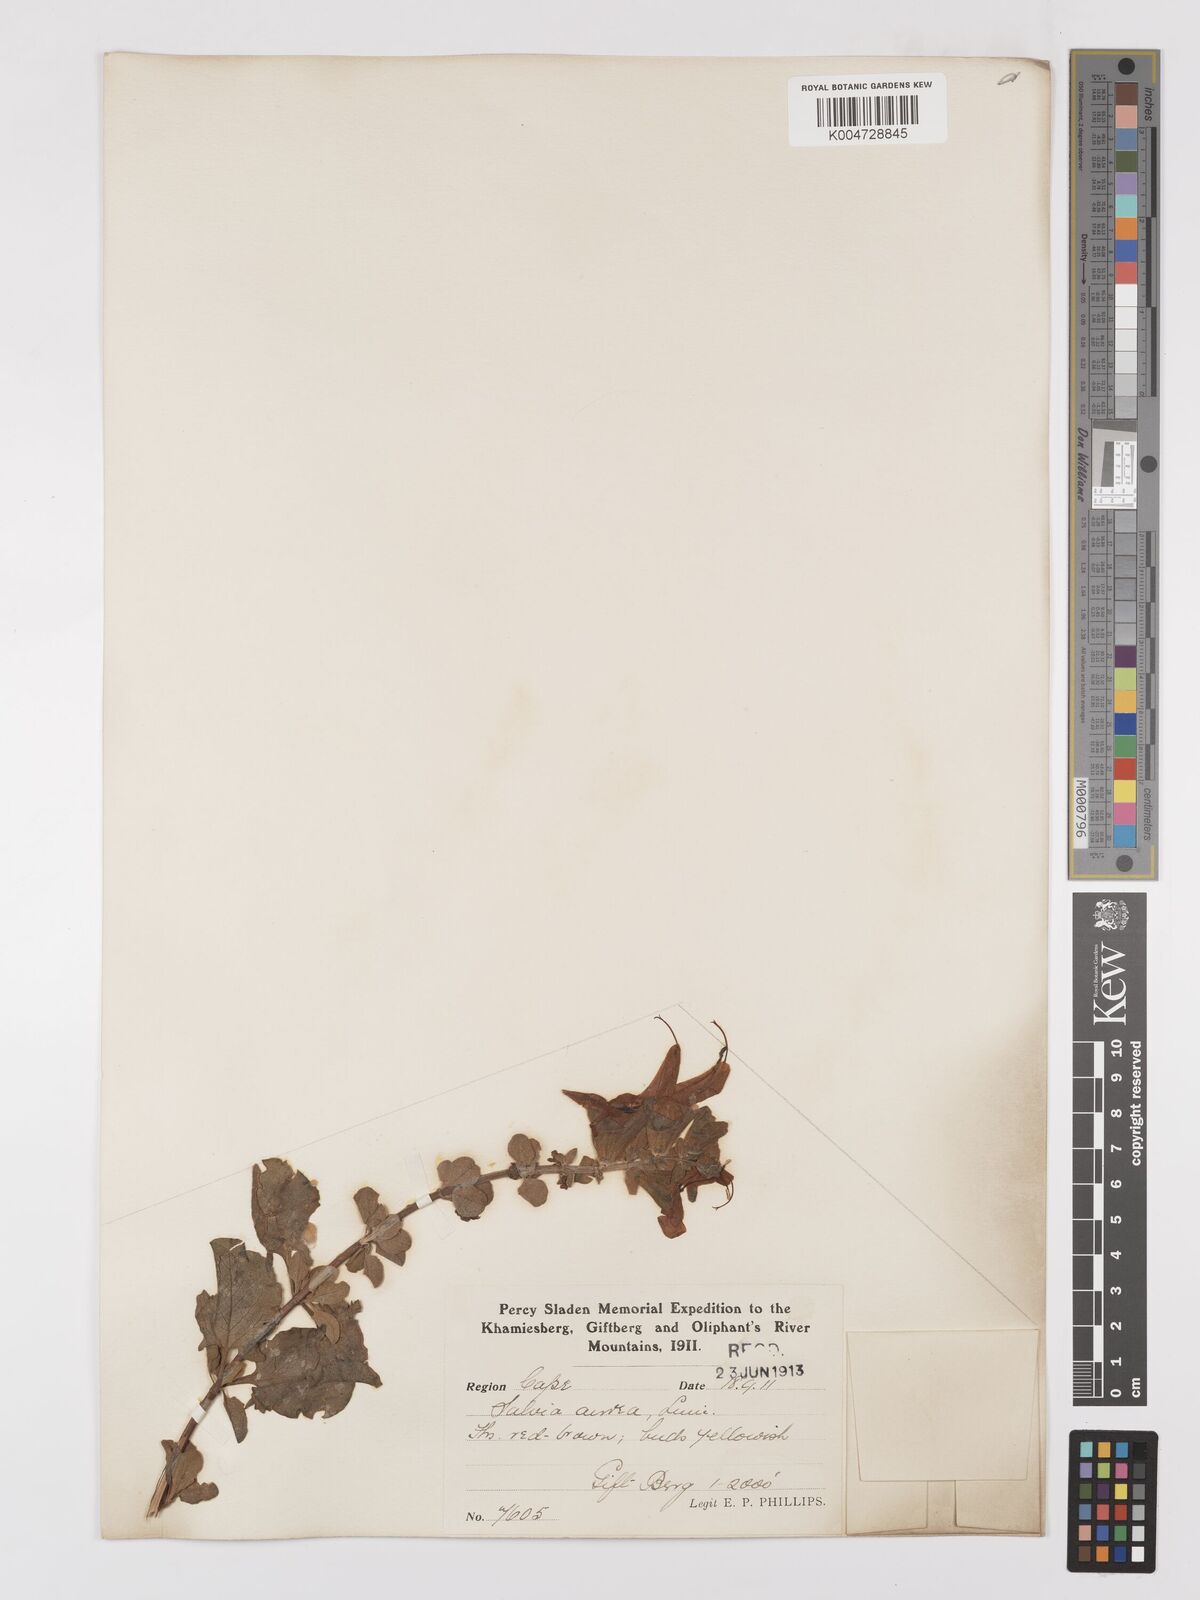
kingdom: Plantae
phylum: Tracheophyta
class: Magnoliopsida
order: Lamiales
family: Lamiaceae
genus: Salvia
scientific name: Salvia aurea
